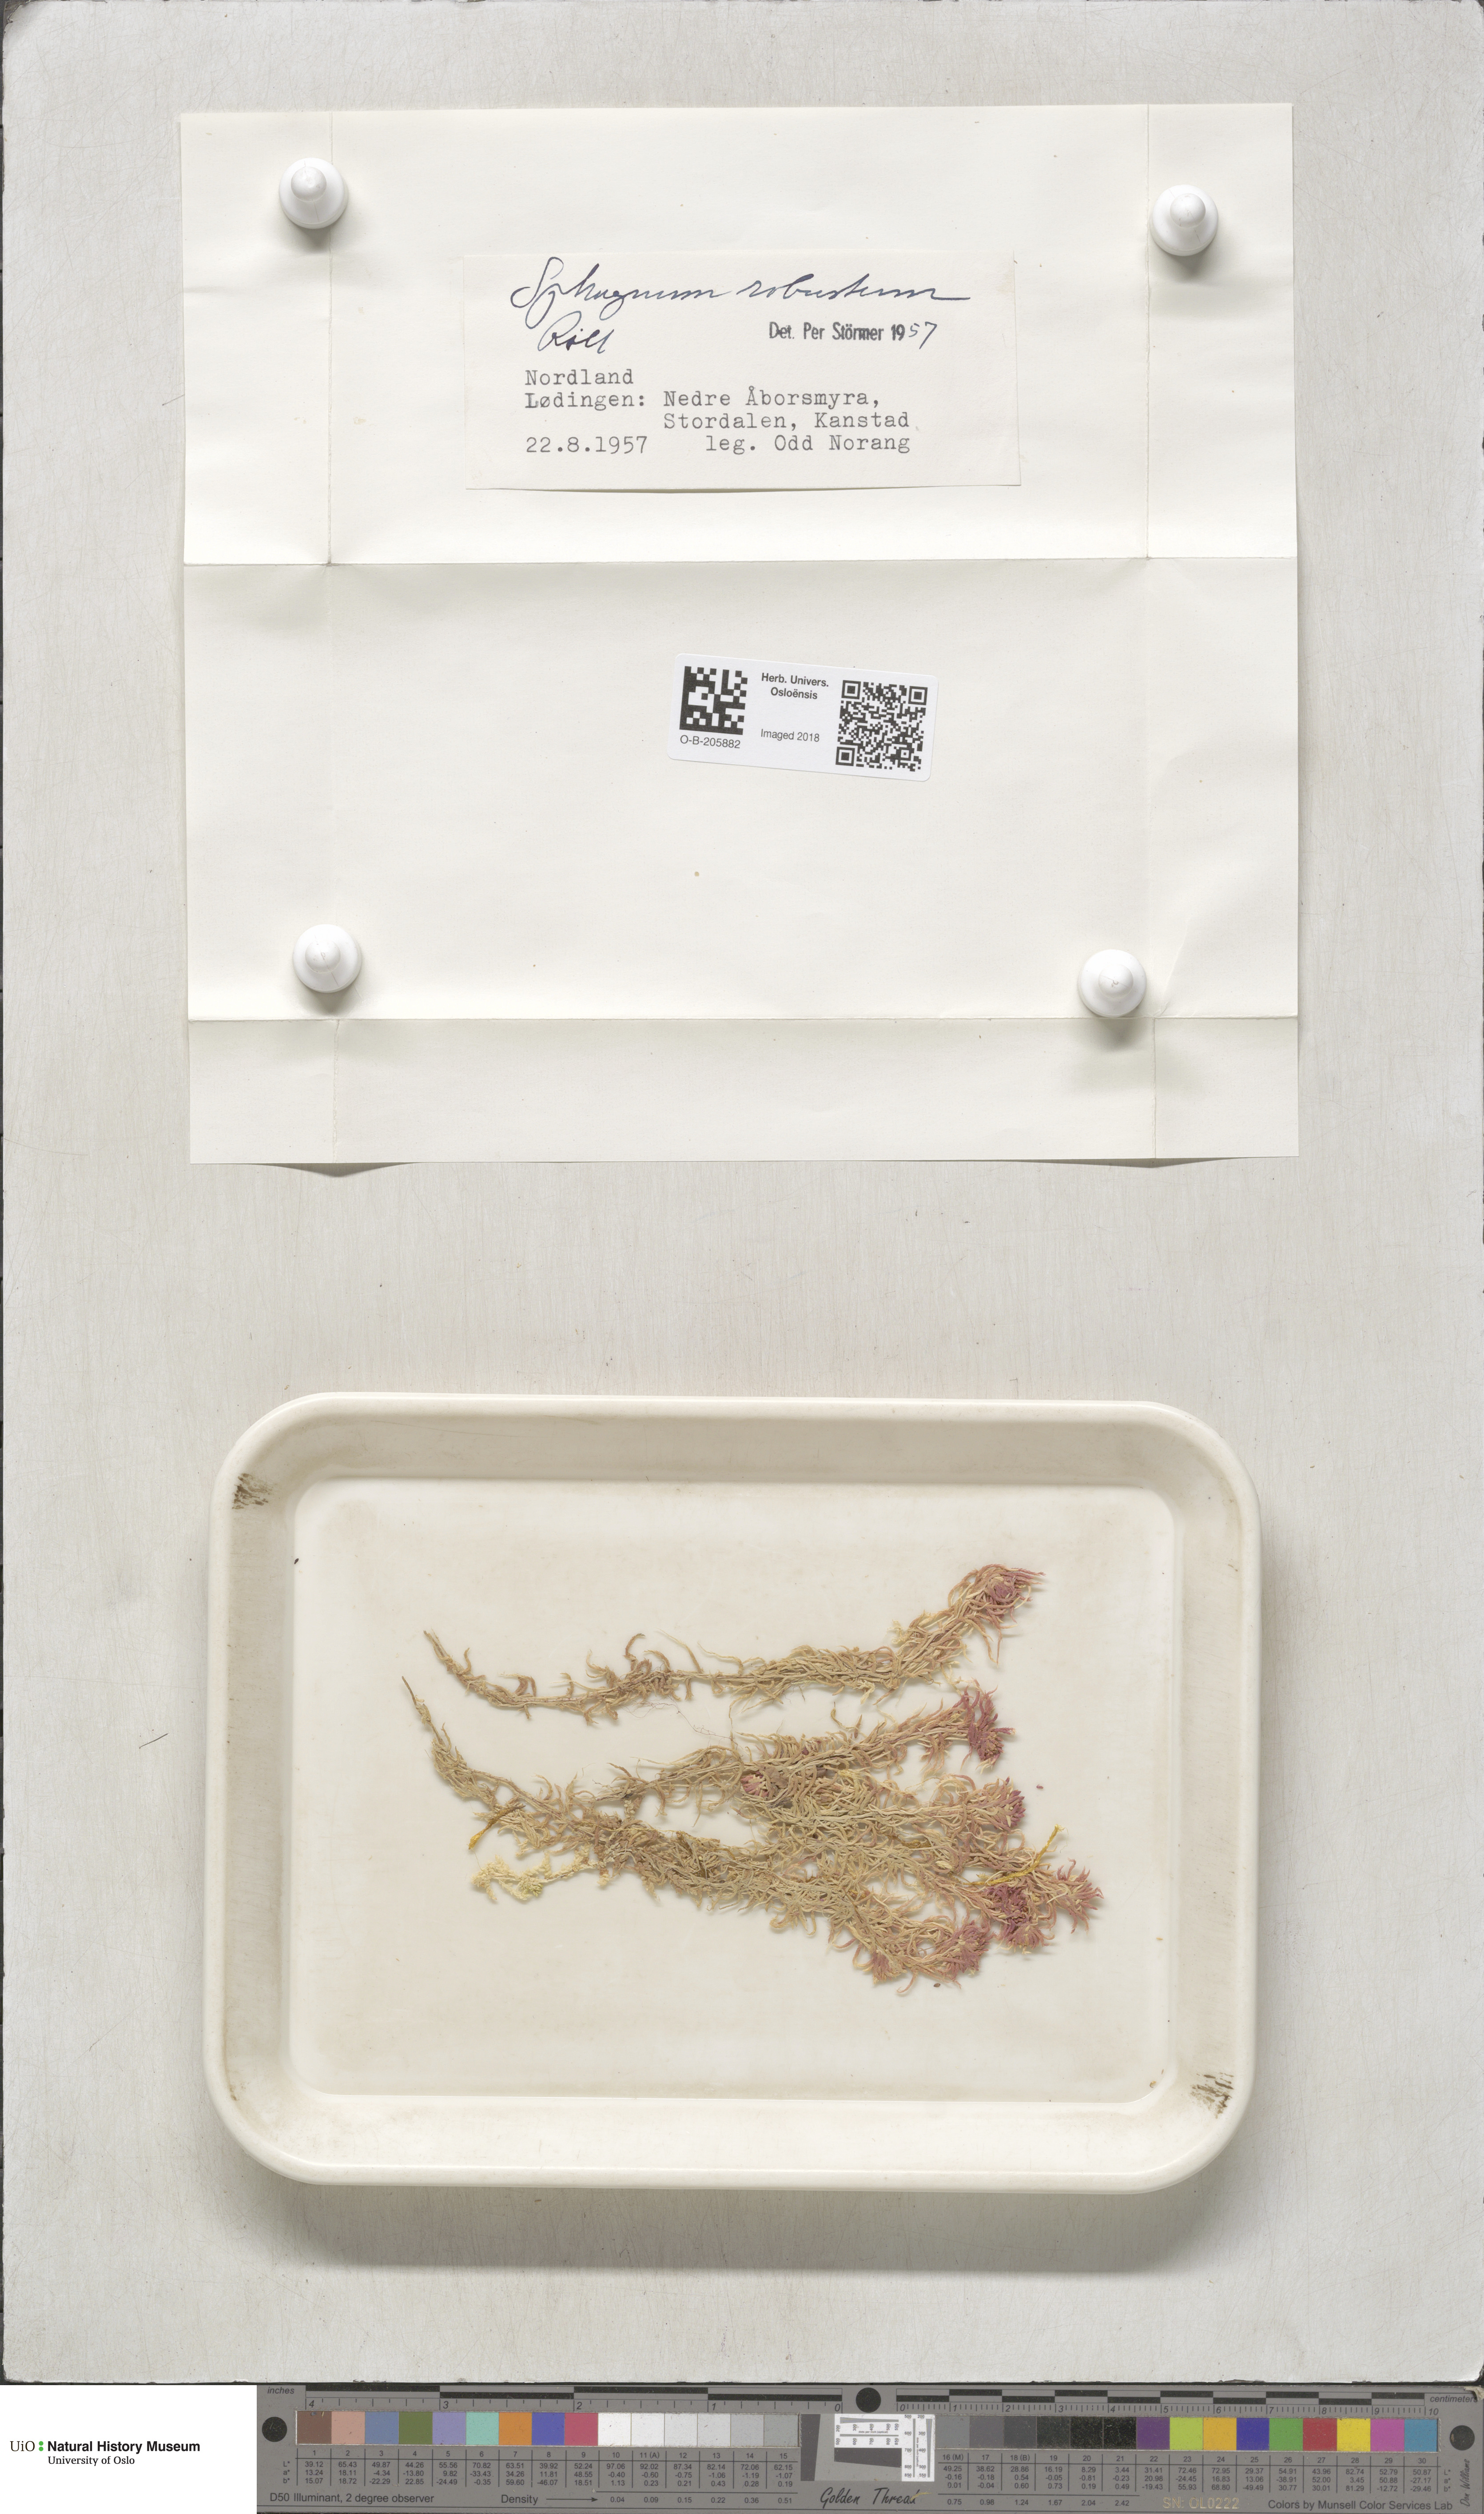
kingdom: Plantae
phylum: Bryophyta
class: Sphagnopsida
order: Sphagnales
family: Sphagnaceae
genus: Sphagnum
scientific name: Sphagnum russowii
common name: Russow's peat moss
